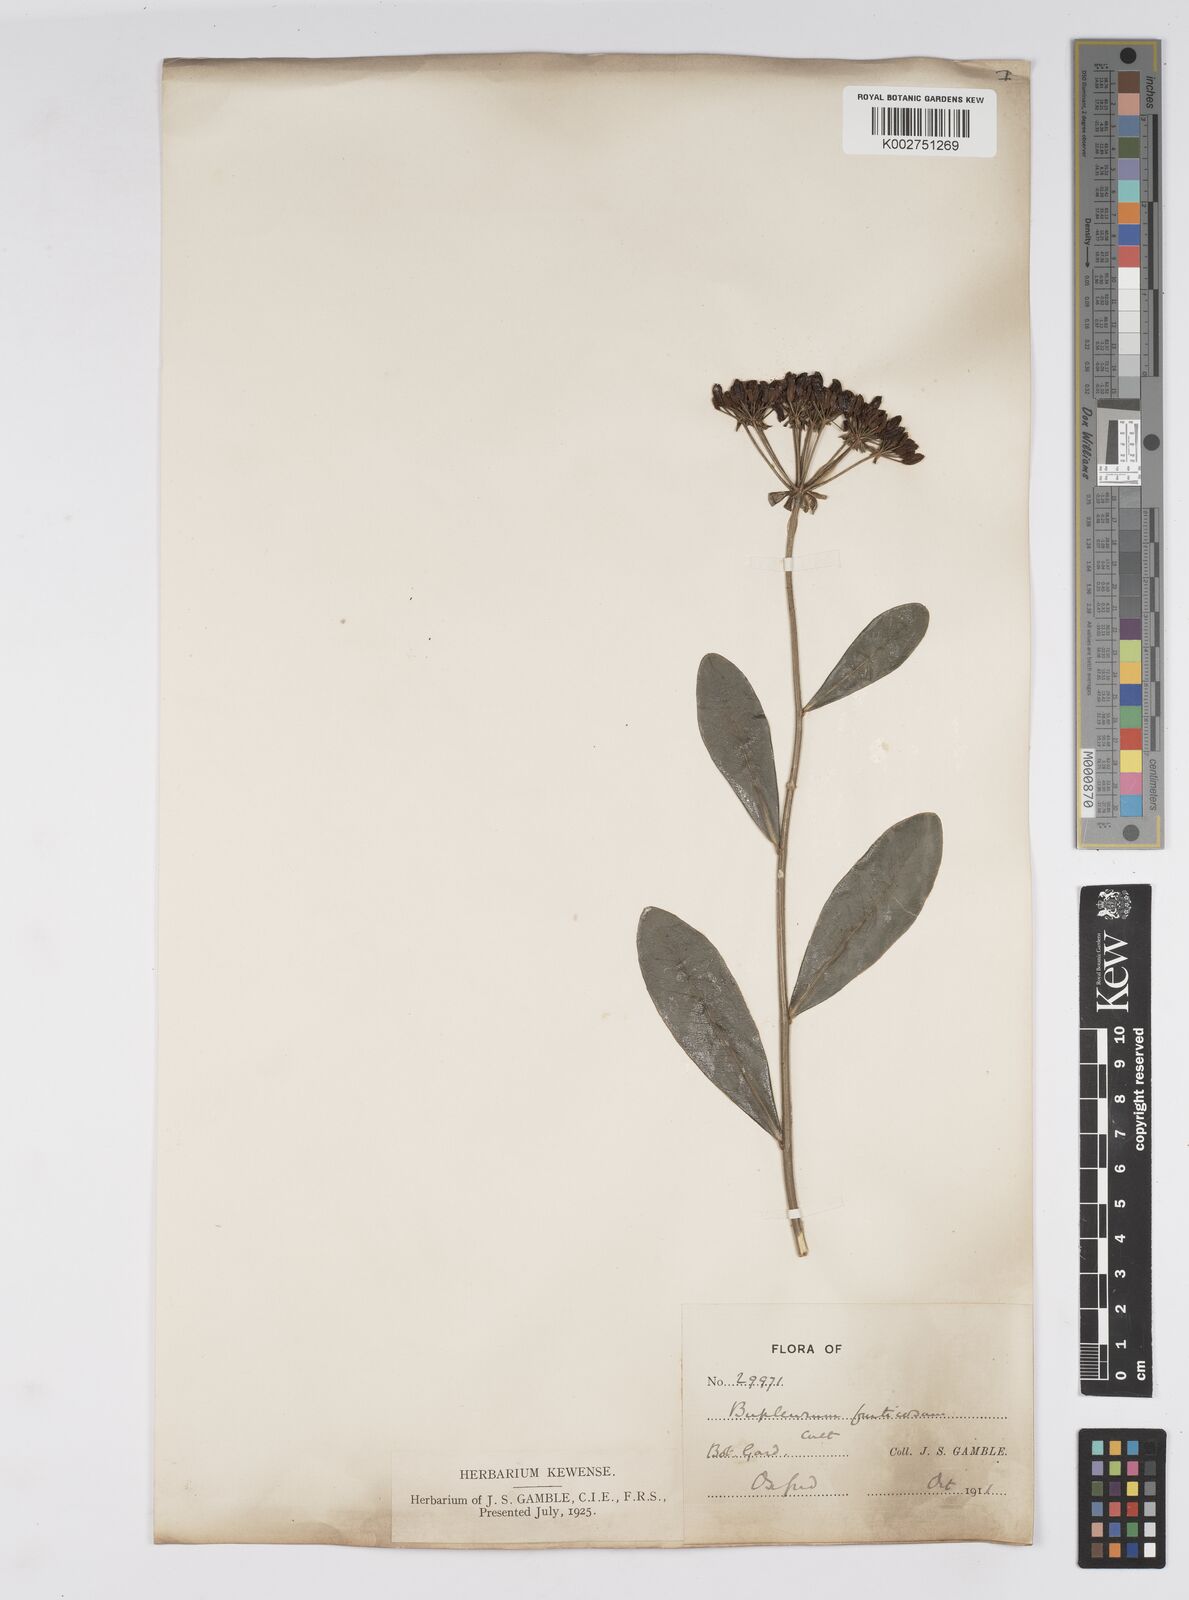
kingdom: Plantae
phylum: Tracheophyta
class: Magnoliopsida
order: Apiales
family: Apiaceae
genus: Bupleurum
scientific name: Bupleurum fruticosum
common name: Shrubby hare's-ear
